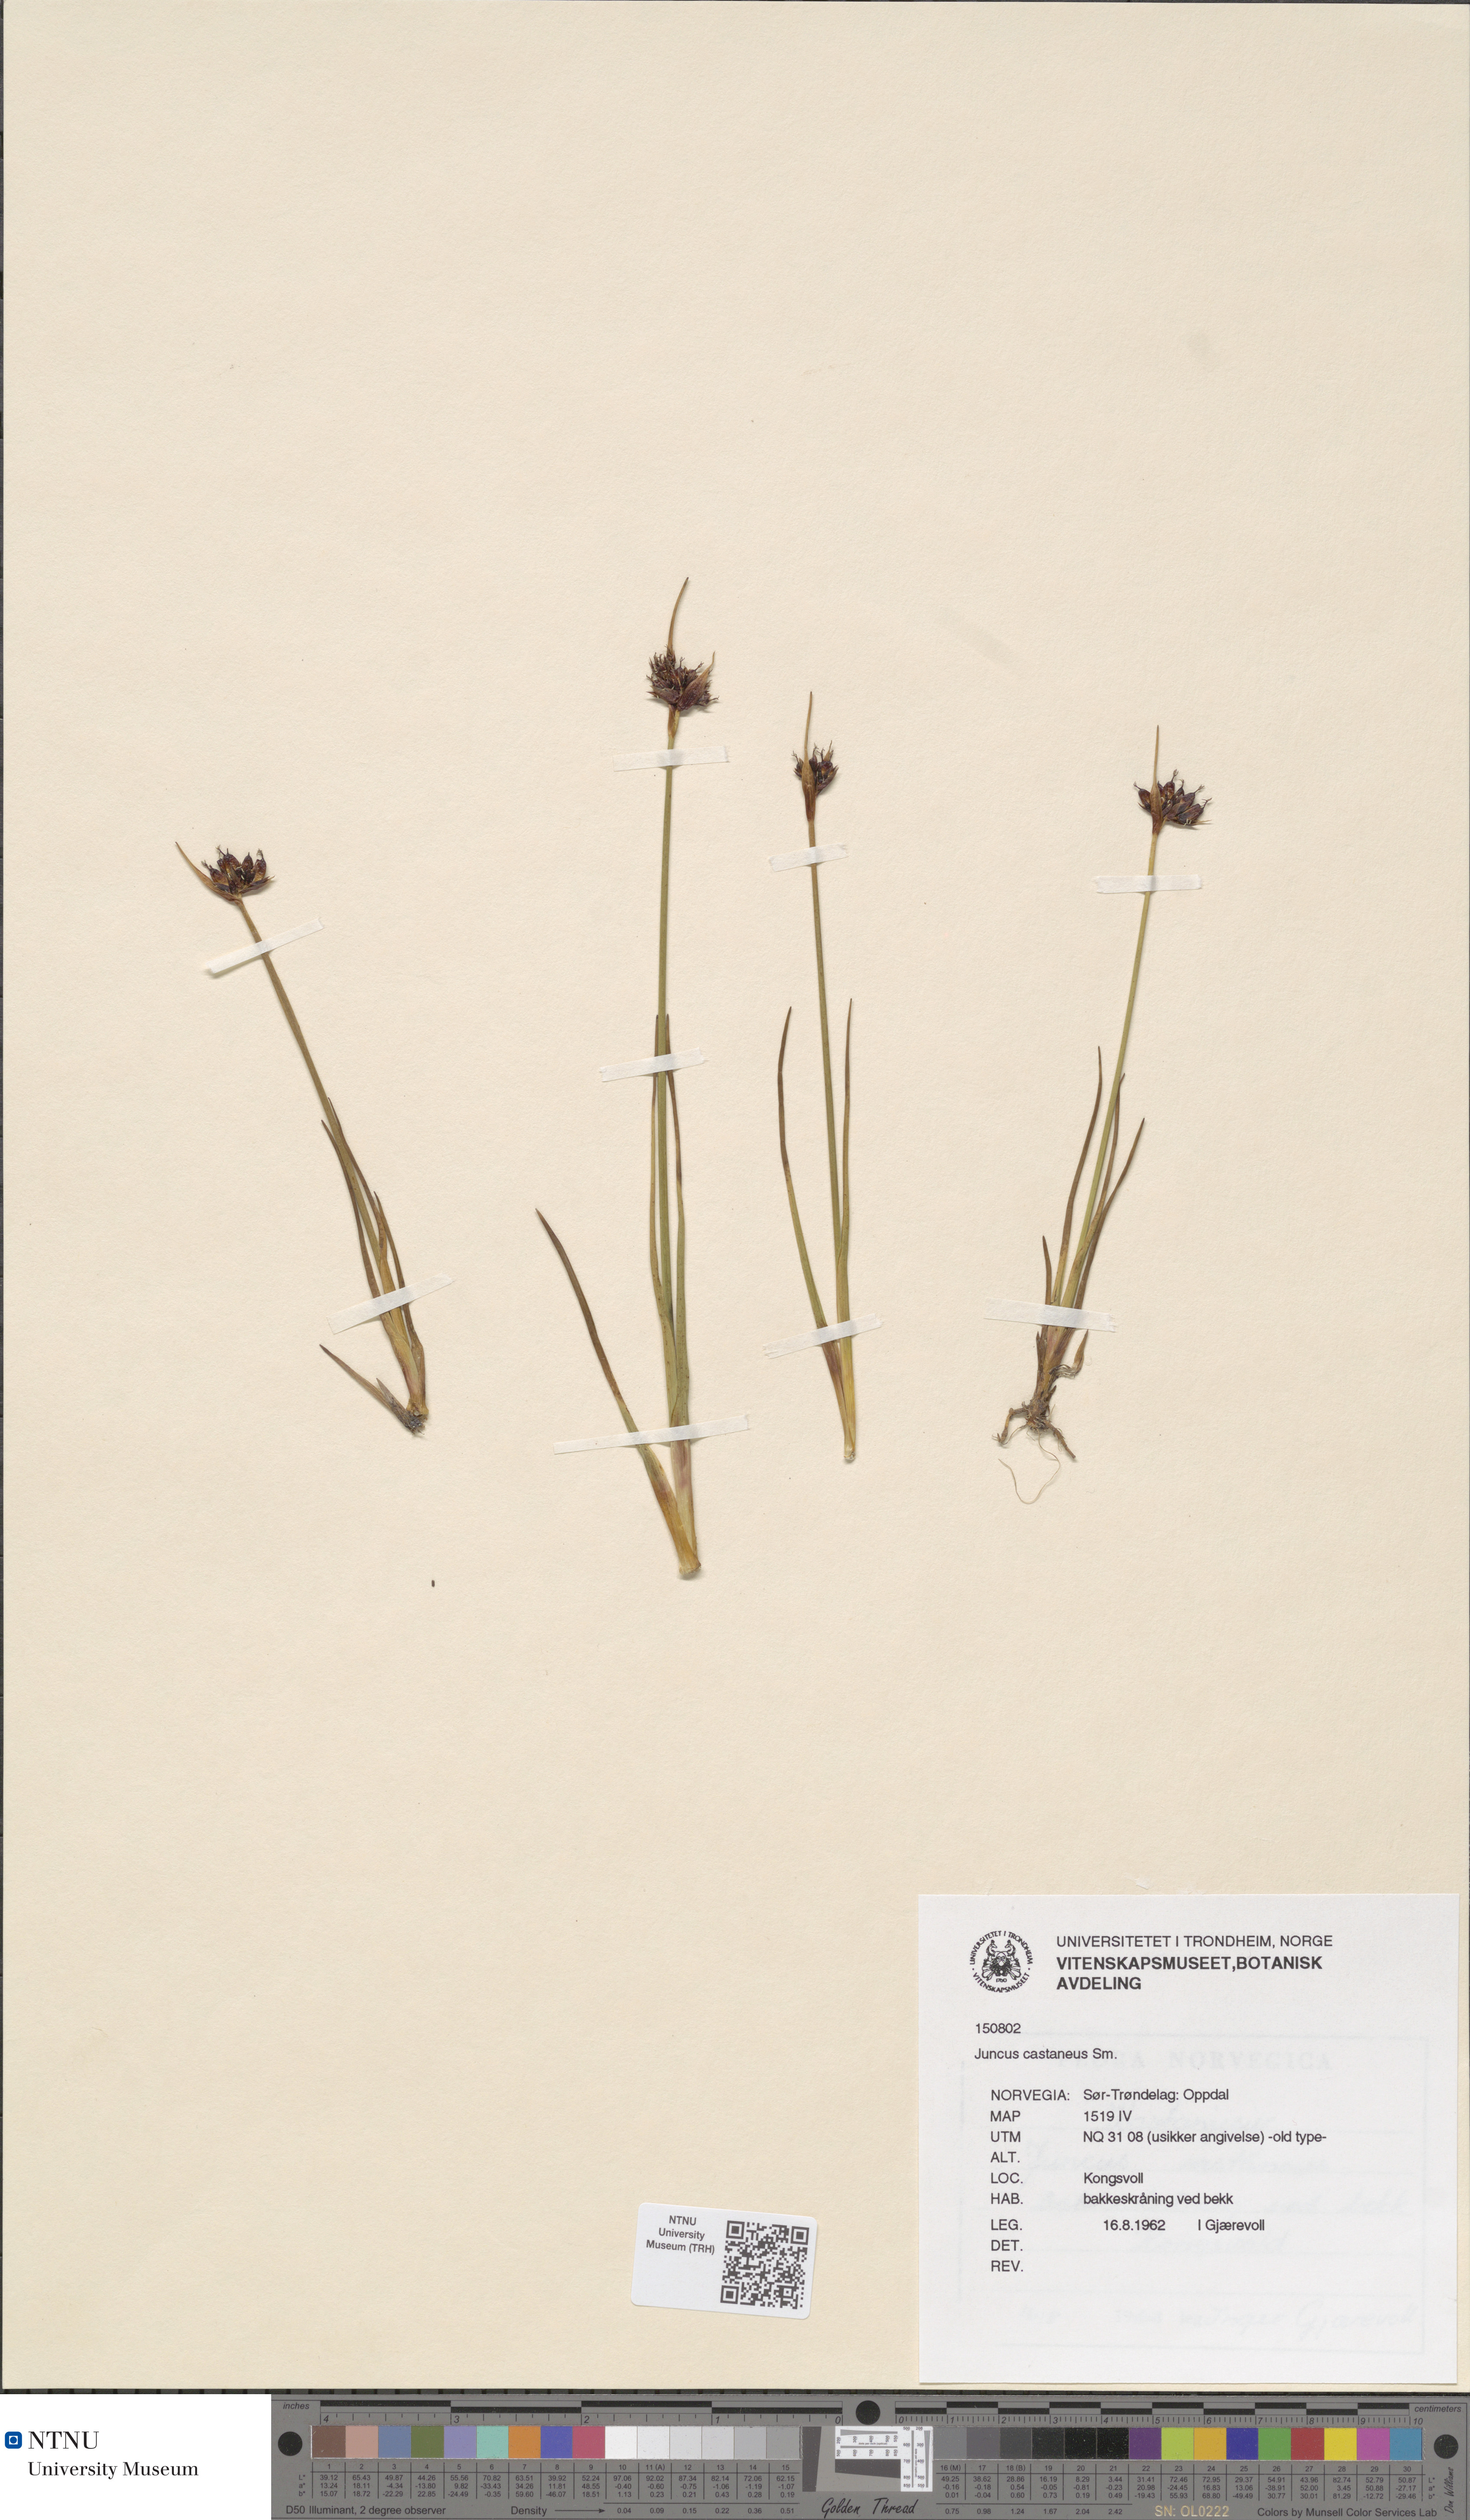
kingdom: Plantae
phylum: Tracheophyta
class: Liliopsida
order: Poales
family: Juncaceae
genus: Juncus
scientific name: Juncus castaneus
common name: Chestnut rush
